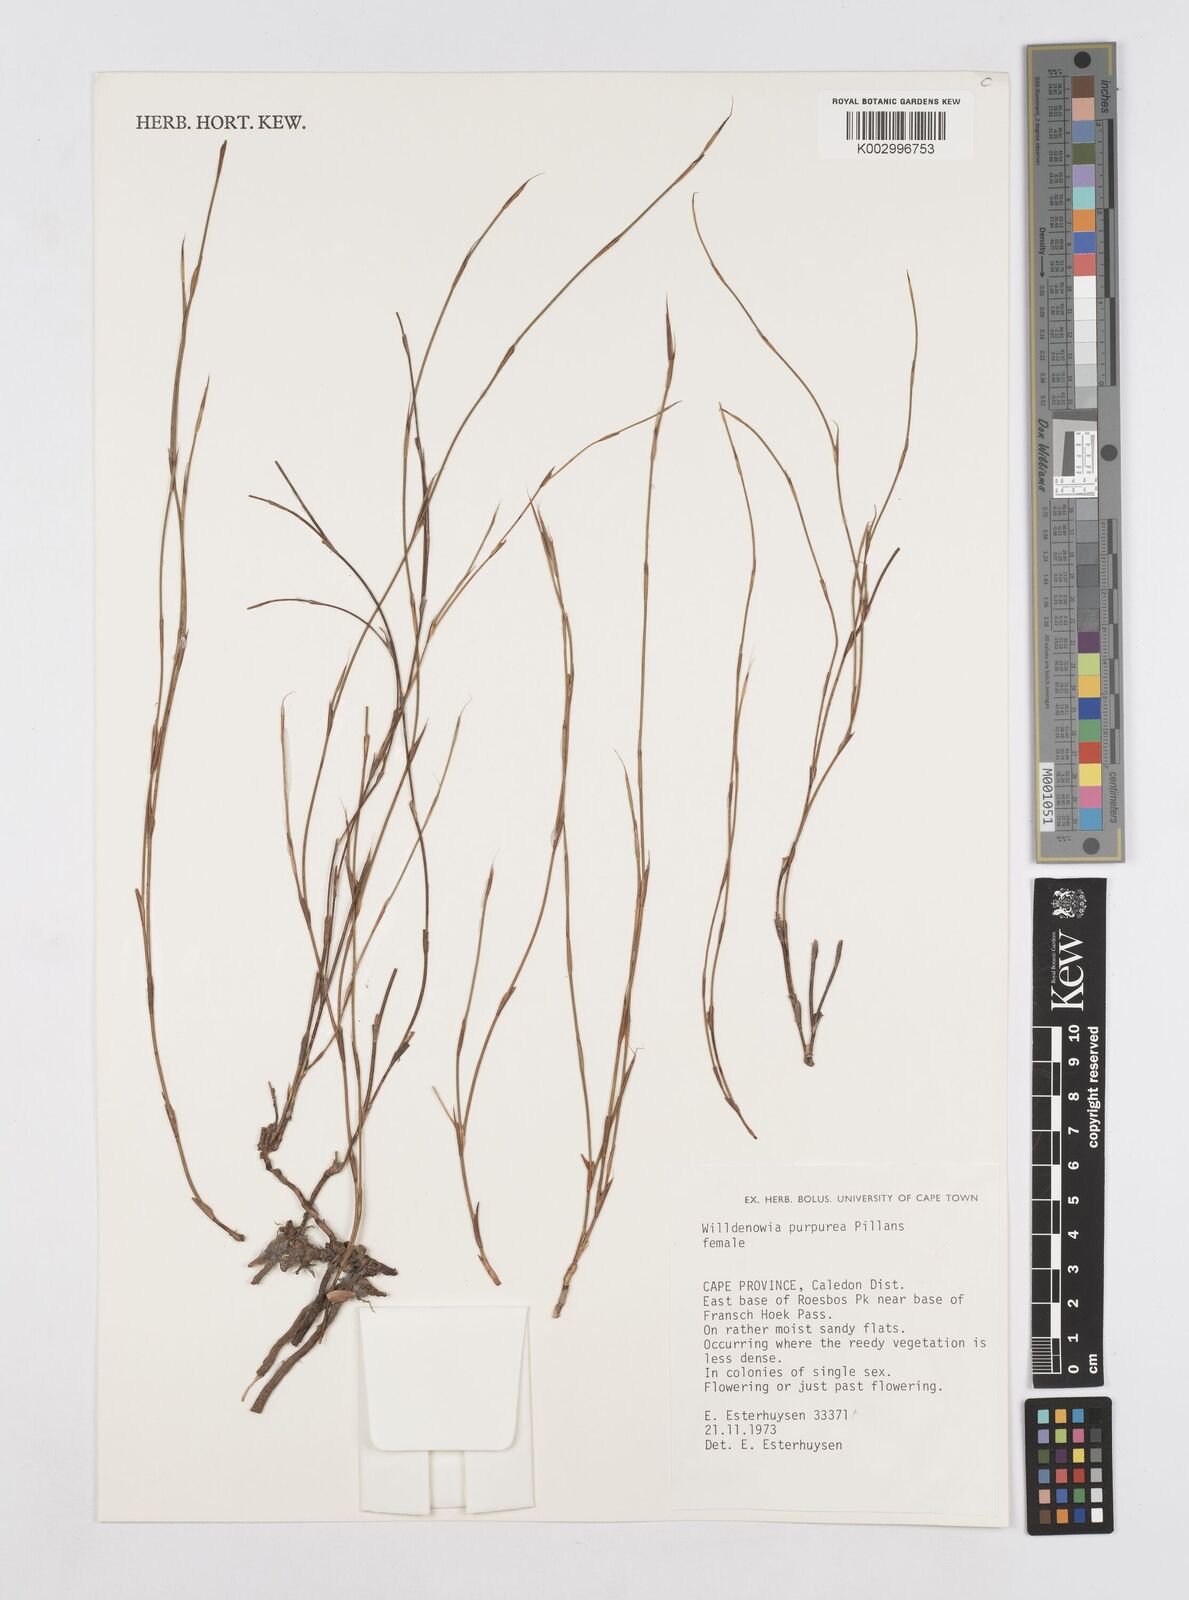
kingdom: Plantae
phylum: Tracheophyta
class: Liliopsida
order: Poales
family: Restionaceae
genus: Willdenowia
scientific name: Willdenowia purpurea
